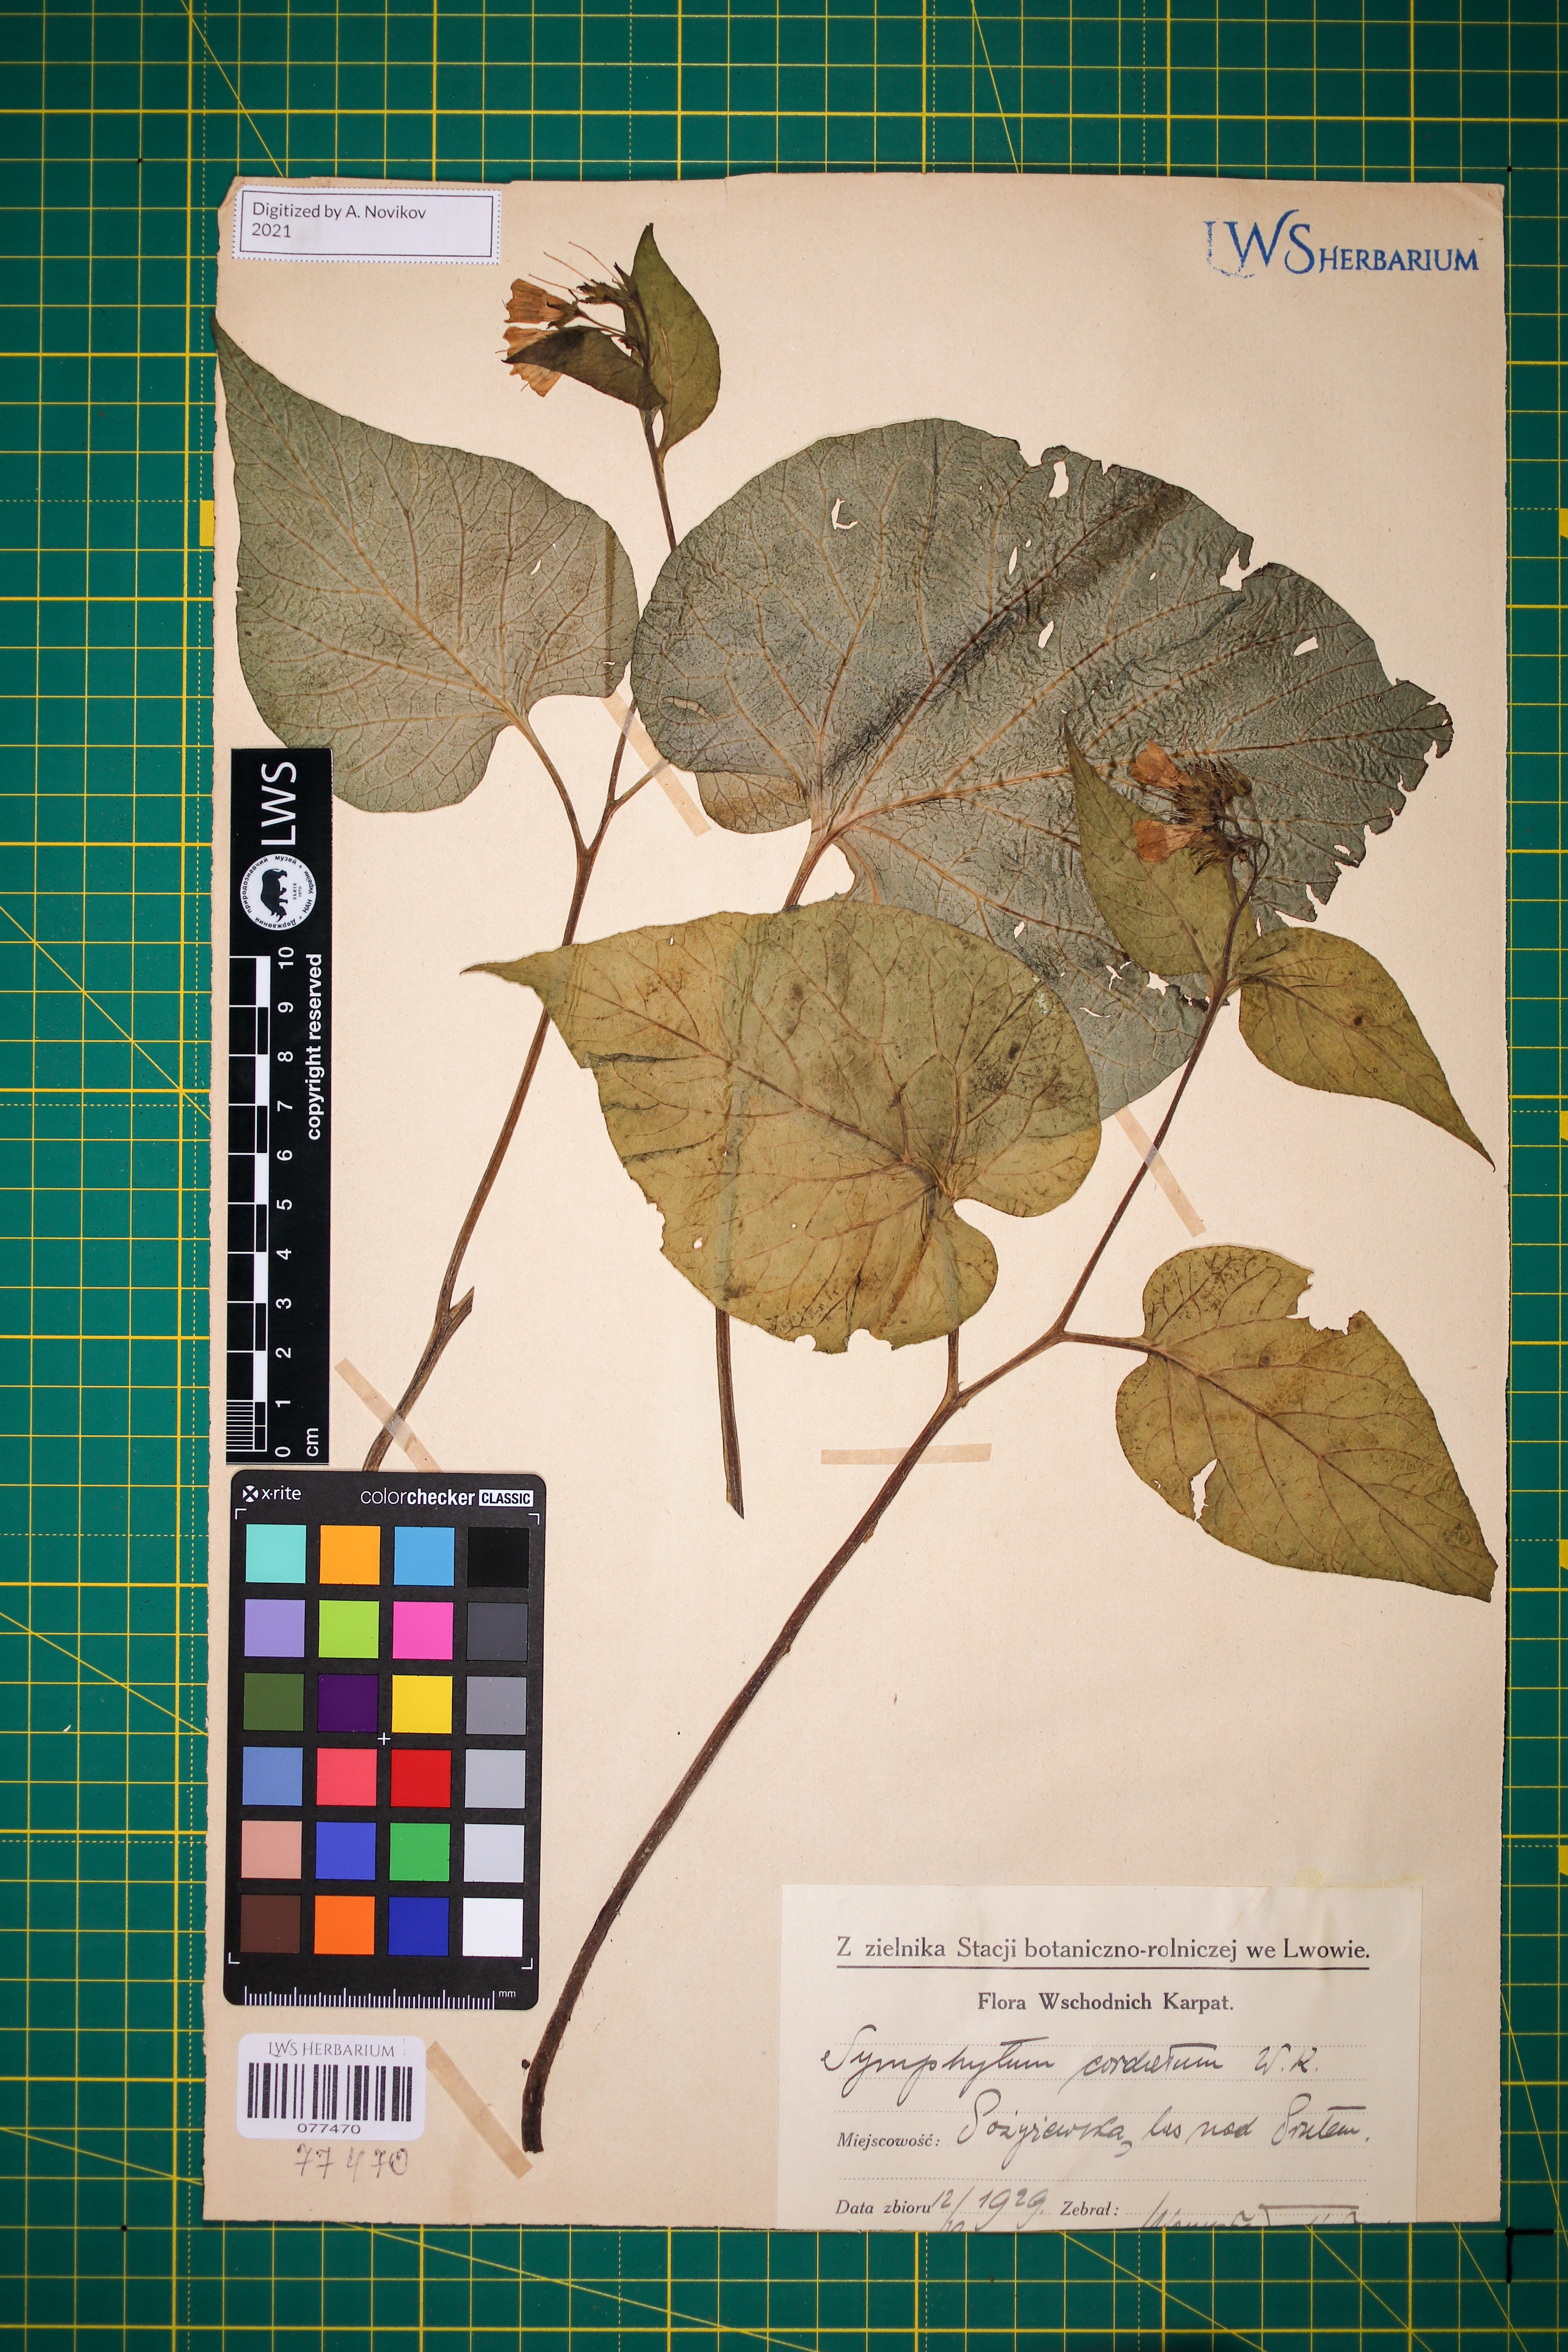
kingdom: Plantae
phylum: Tracheophyta
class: Magnoliopsida
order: Boraginales
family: Boraginaceae
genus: Symphytum
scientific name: Symphytum cordatum
